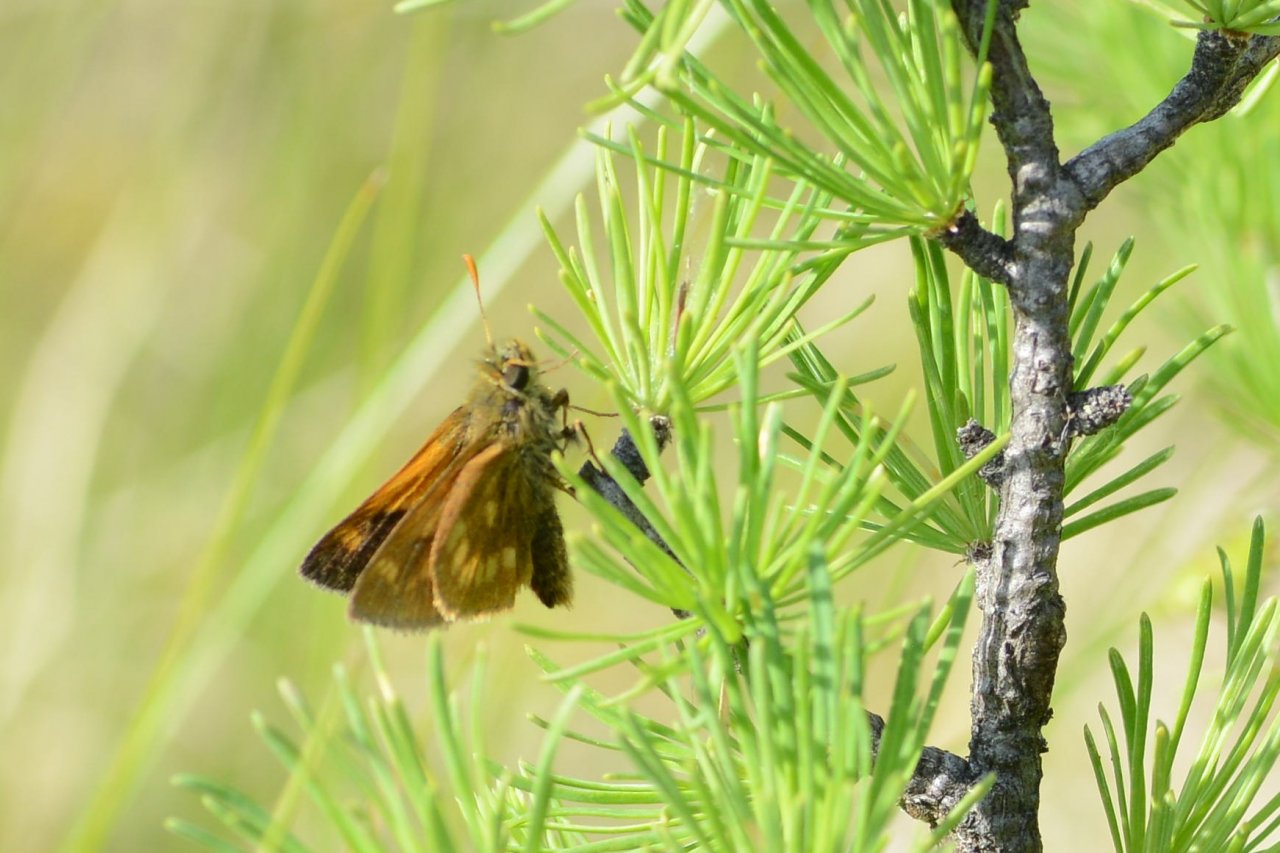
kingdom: Animalia
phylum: Arthropoda
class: Insecta
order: Lepidoptera
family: Hesperiidae
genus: Polites
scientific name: Polites
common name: Long Dash Skipper
